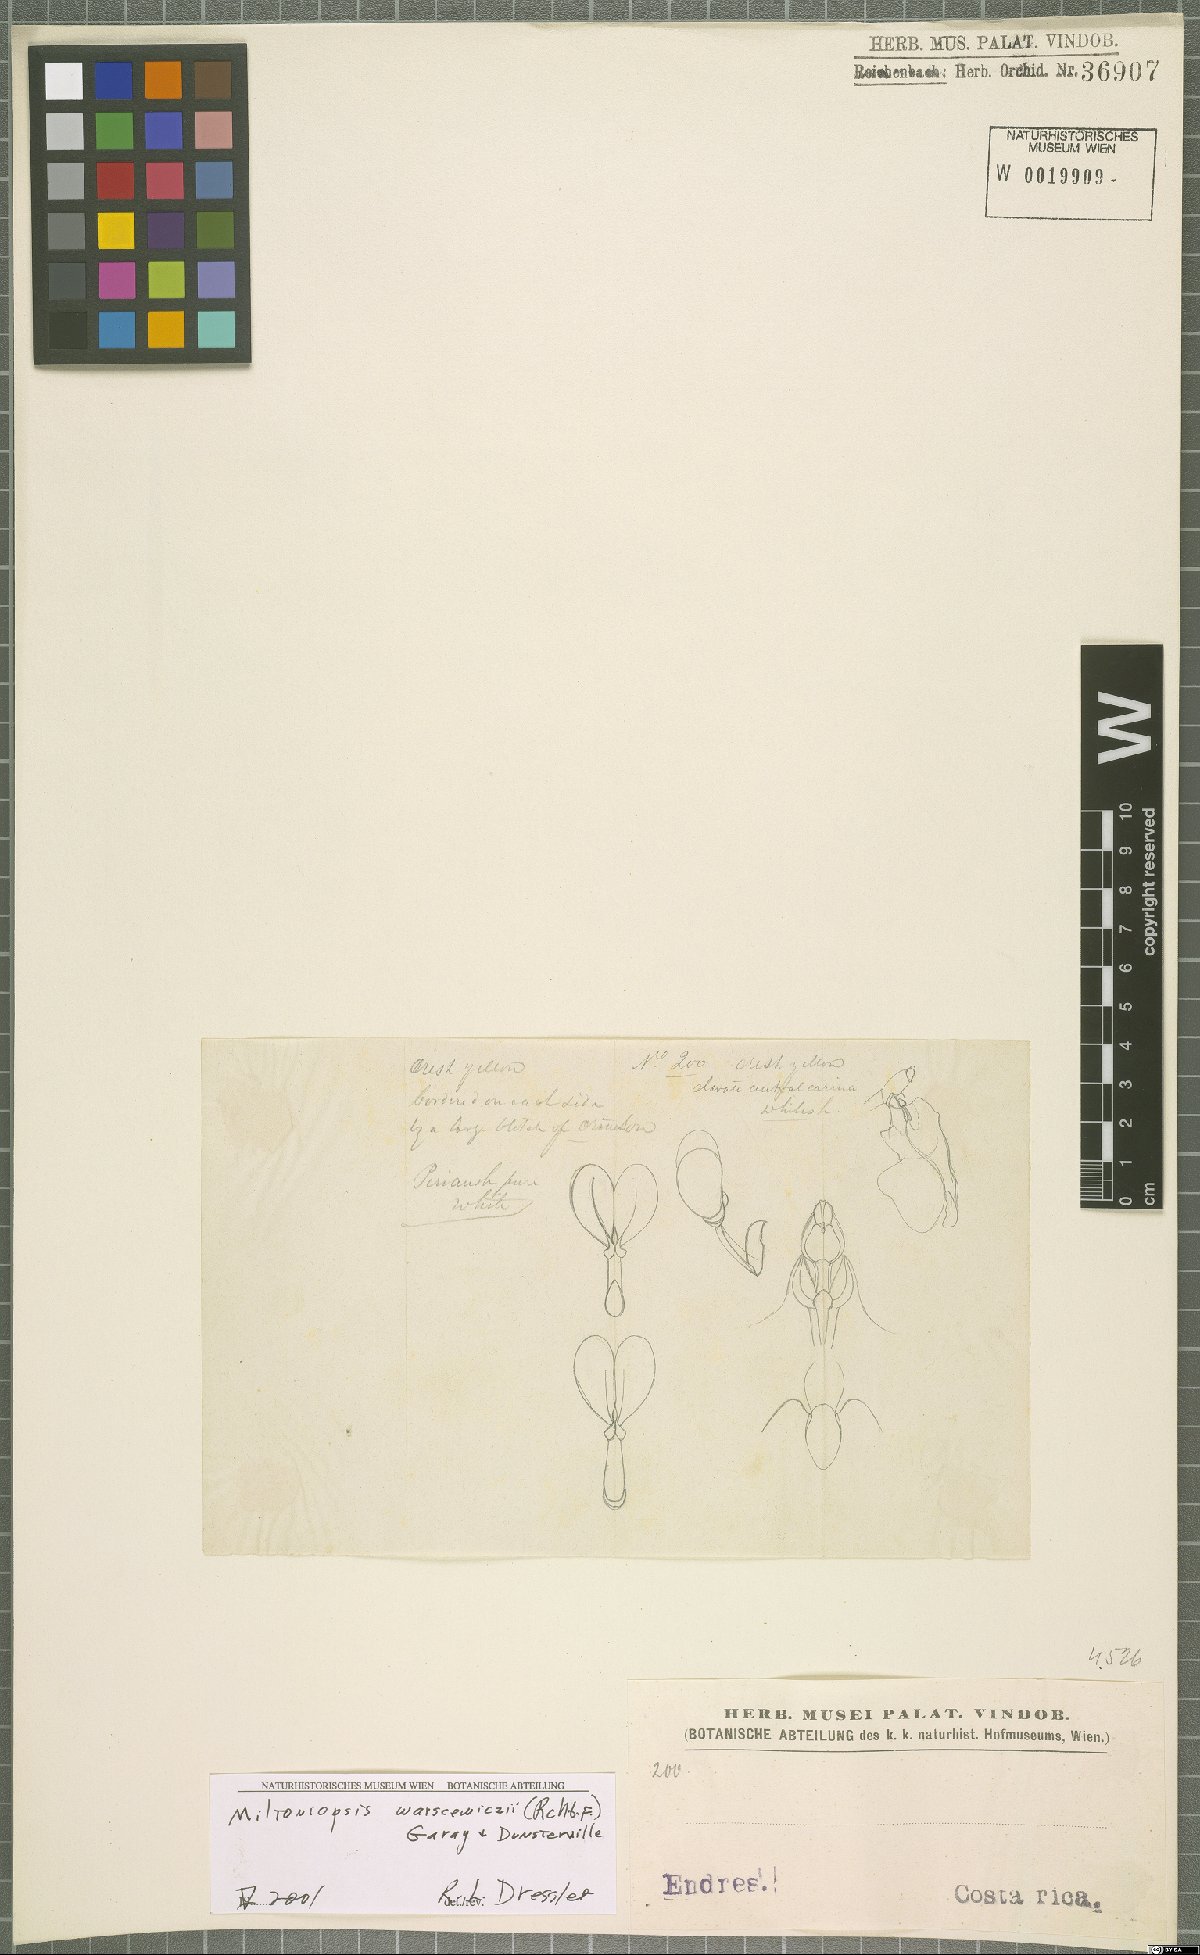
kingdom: Plantae
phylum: Tracheophyta
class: Liliopsida
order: Asparagales
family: Orchidaceae
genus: Miltoniopsis
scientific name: Miltoniopsis warszewiczii
